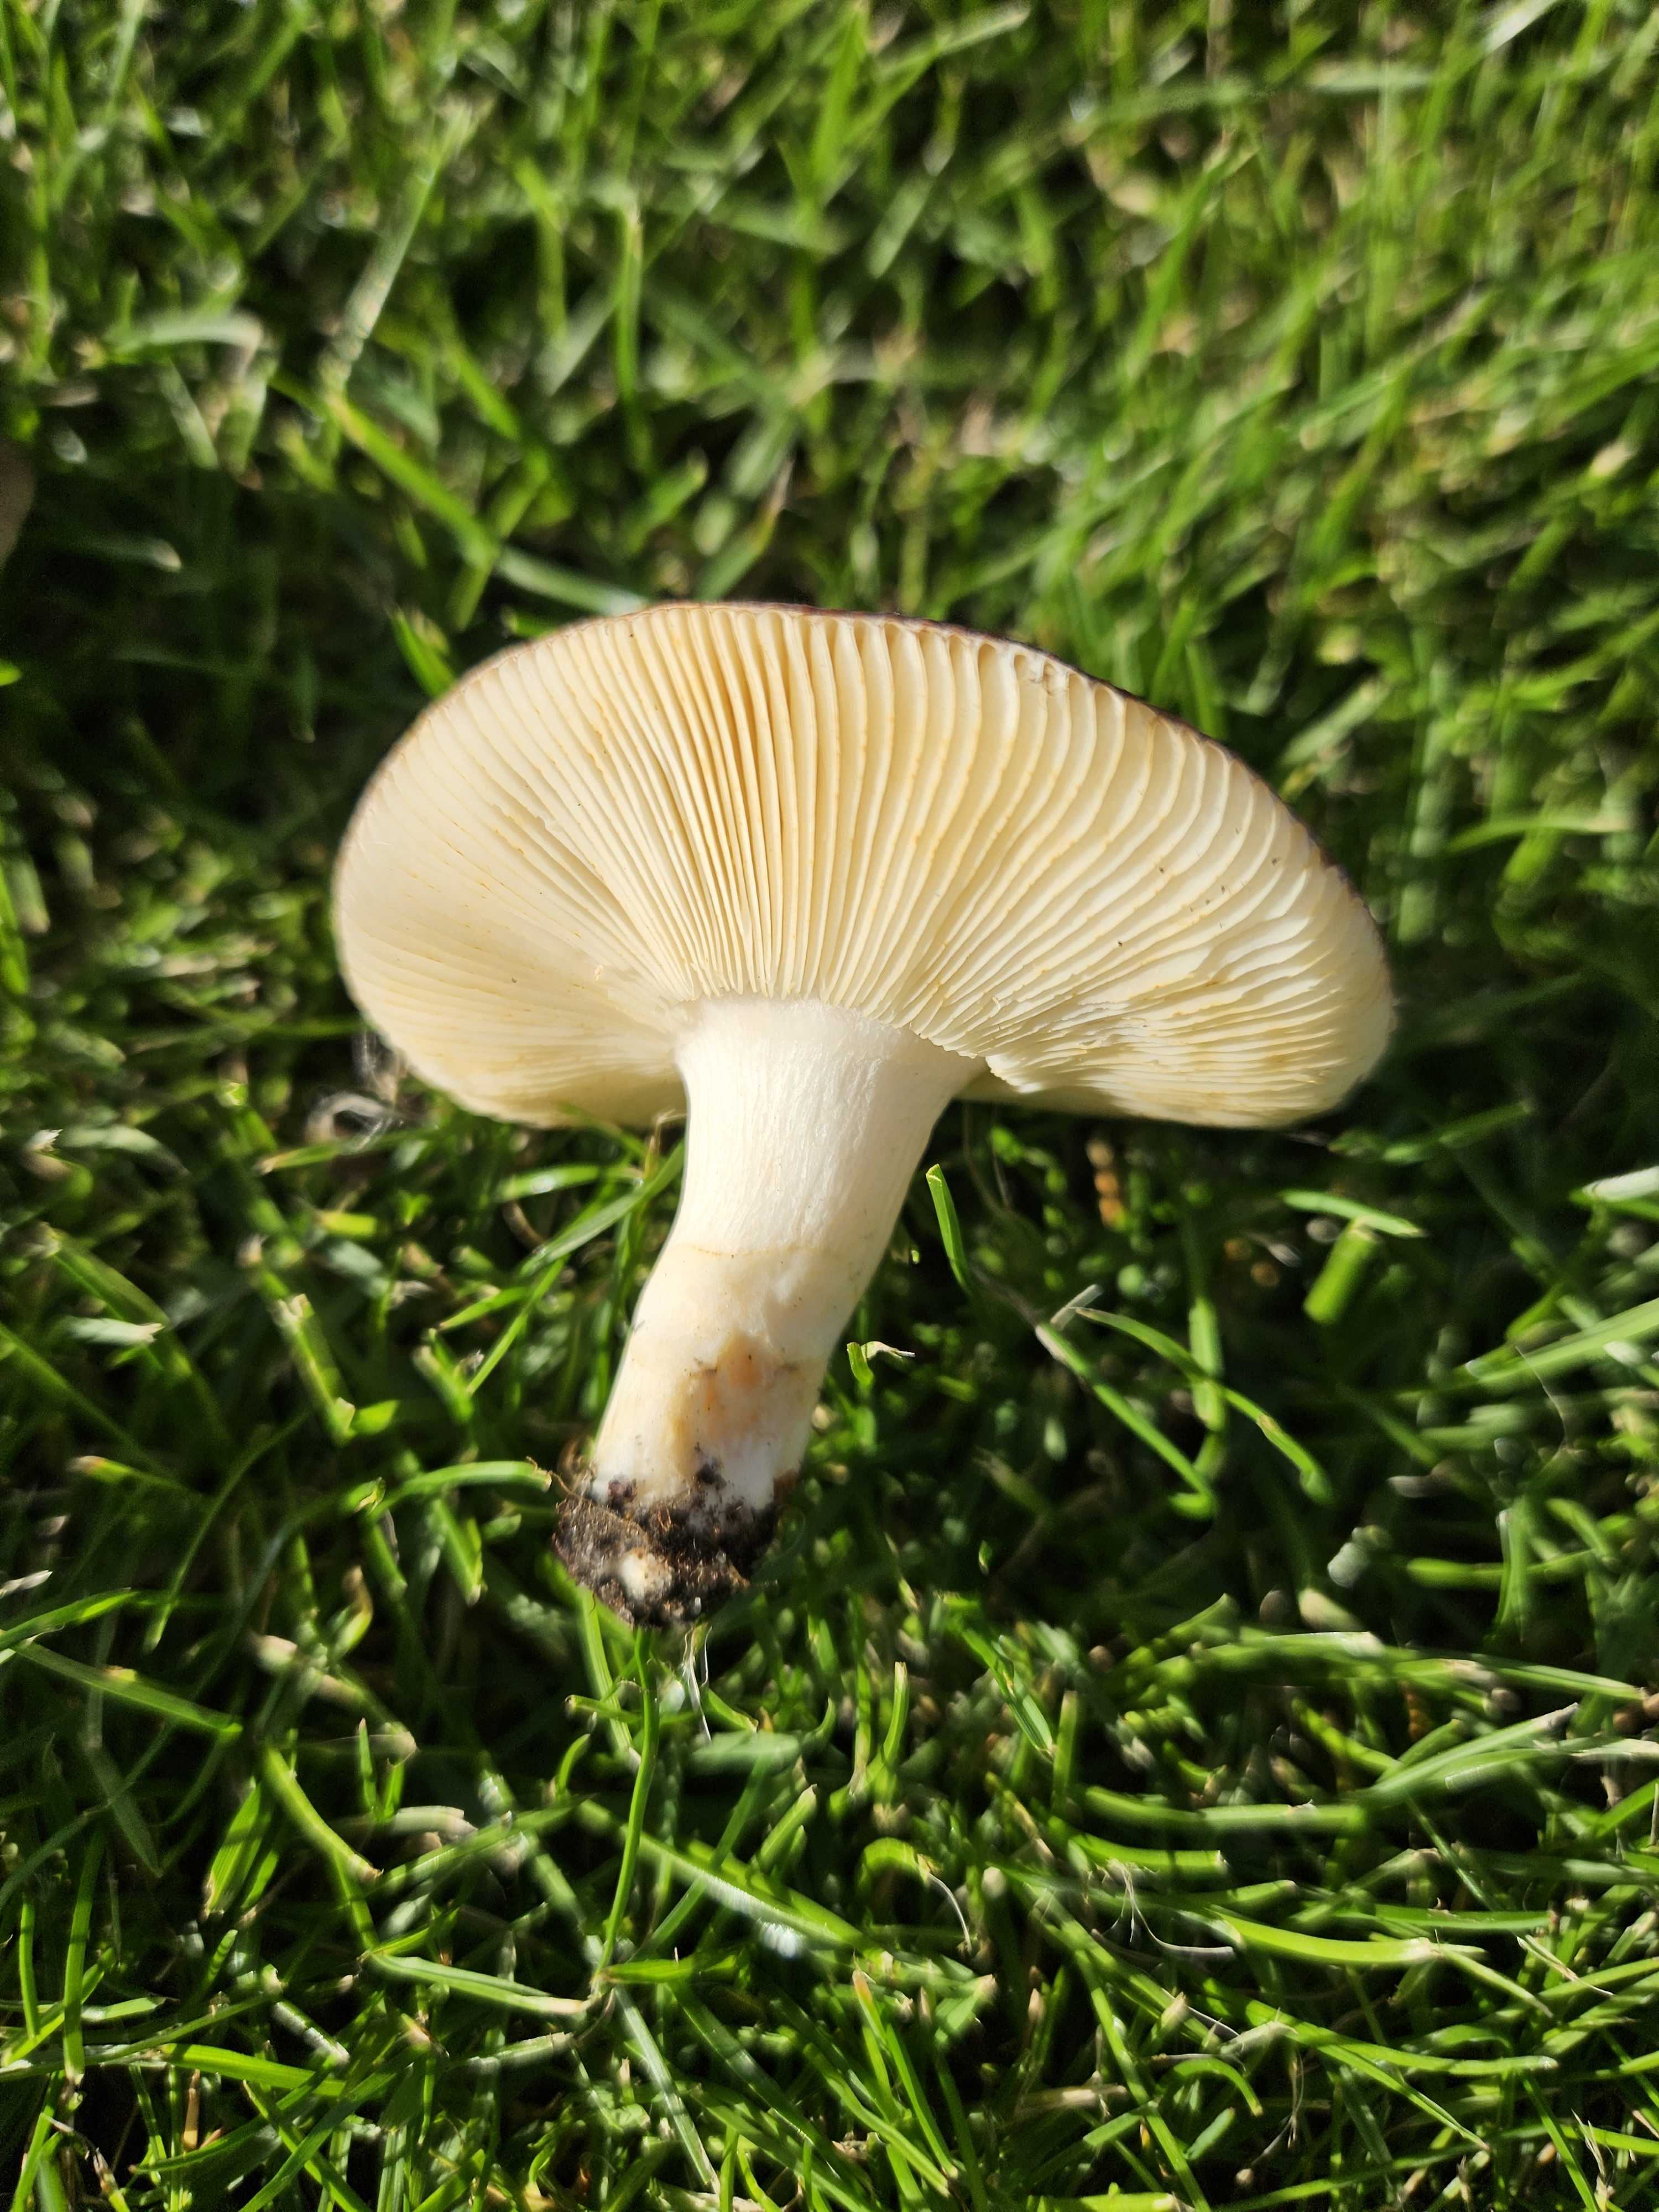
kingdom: Fungi
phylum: Basidiomycota
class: Agaricomycetes
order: Russulales
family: Russulaceae
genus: Russula
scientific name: Russula versicolor
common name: foranderlig skørhat
